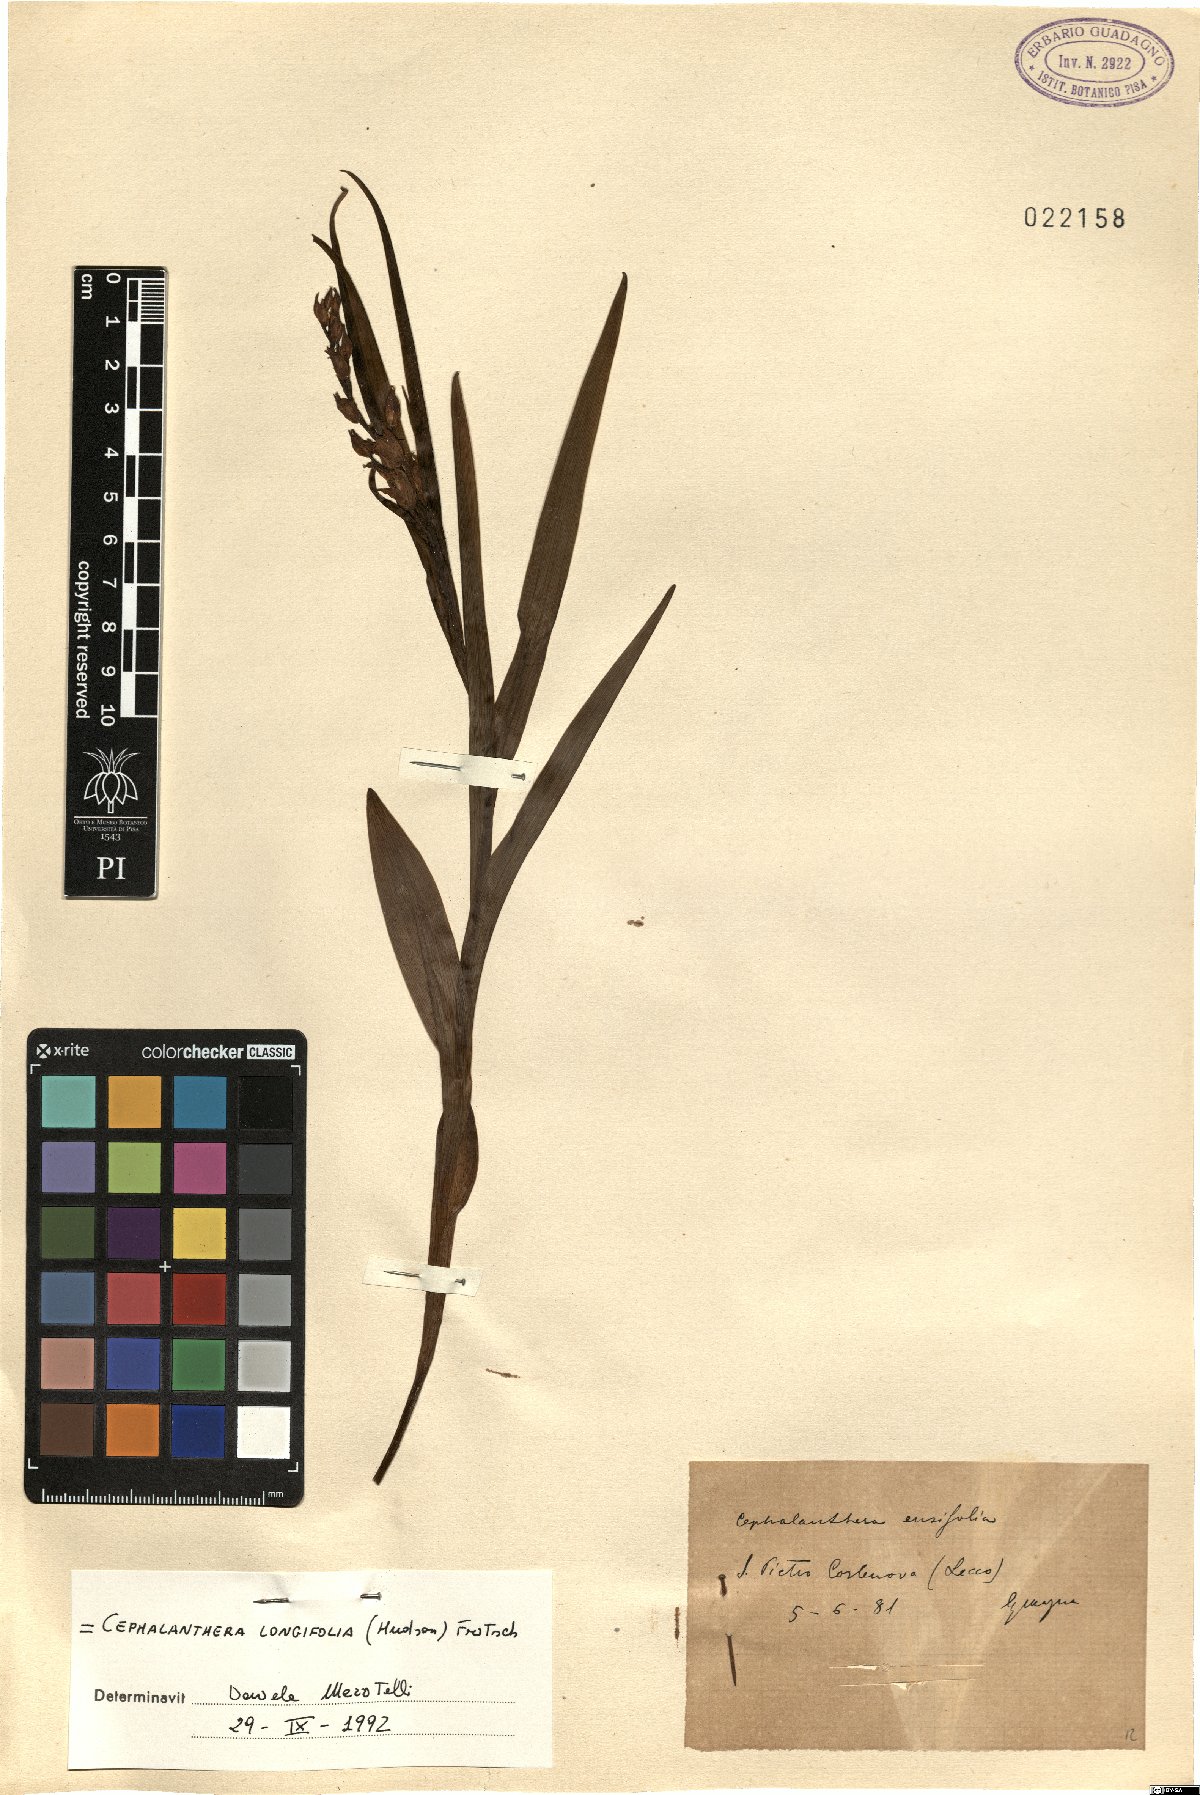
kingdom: Plantae
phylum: Tracheophyta
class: Liliopsida
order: Asparagales
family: Orchidaceae
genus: Cephalanthera
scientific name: Cephalanthera longifolia
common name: Narrow-leaved helleborine
